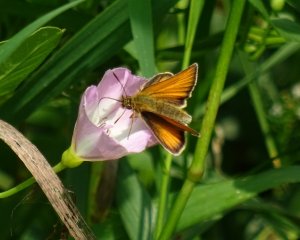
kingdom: Animalia
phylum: Arthropoda
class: Insecta
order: Lepidoptera
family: Hesperiidae
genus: Thymelicus
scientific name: Thymelicus lineola
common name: European Skipper
